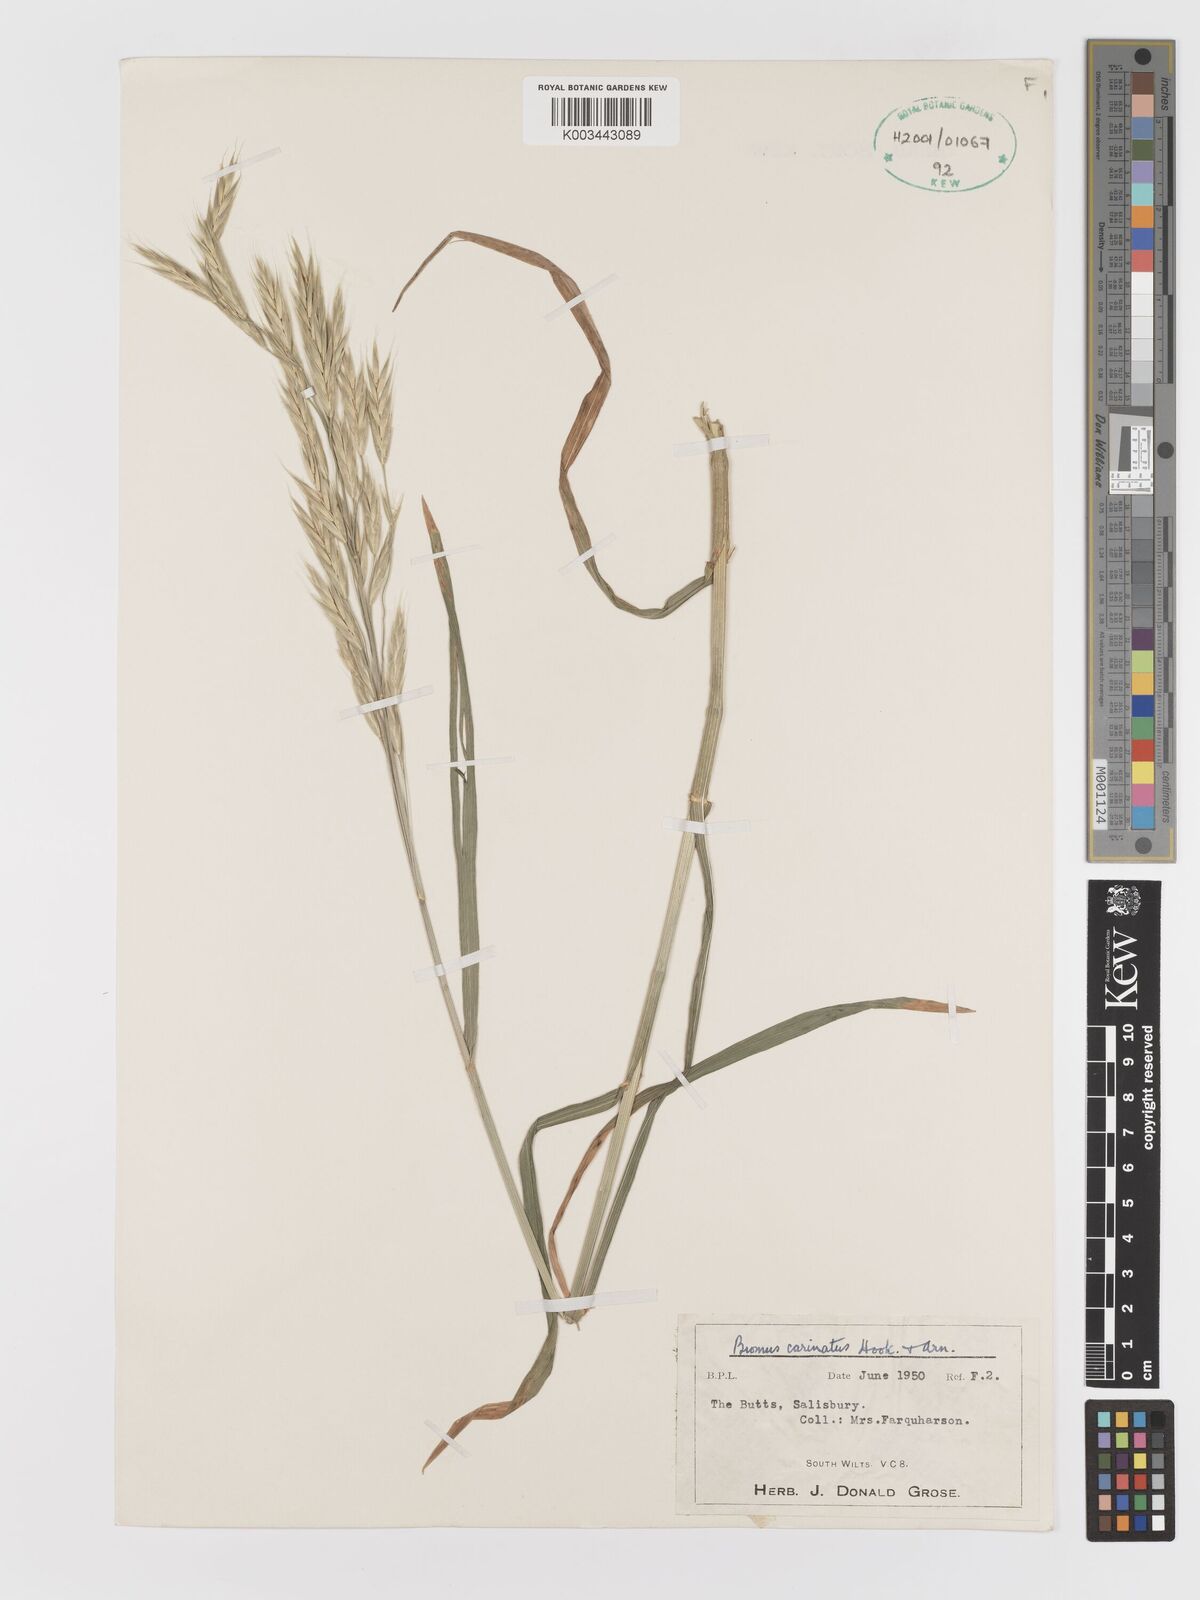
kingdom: Plantae
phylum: Tracheophyta
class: Liliopsida
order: Poales
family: Poaceae
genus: Bromus
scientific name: Bromus carinatus
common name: Mountain brome
